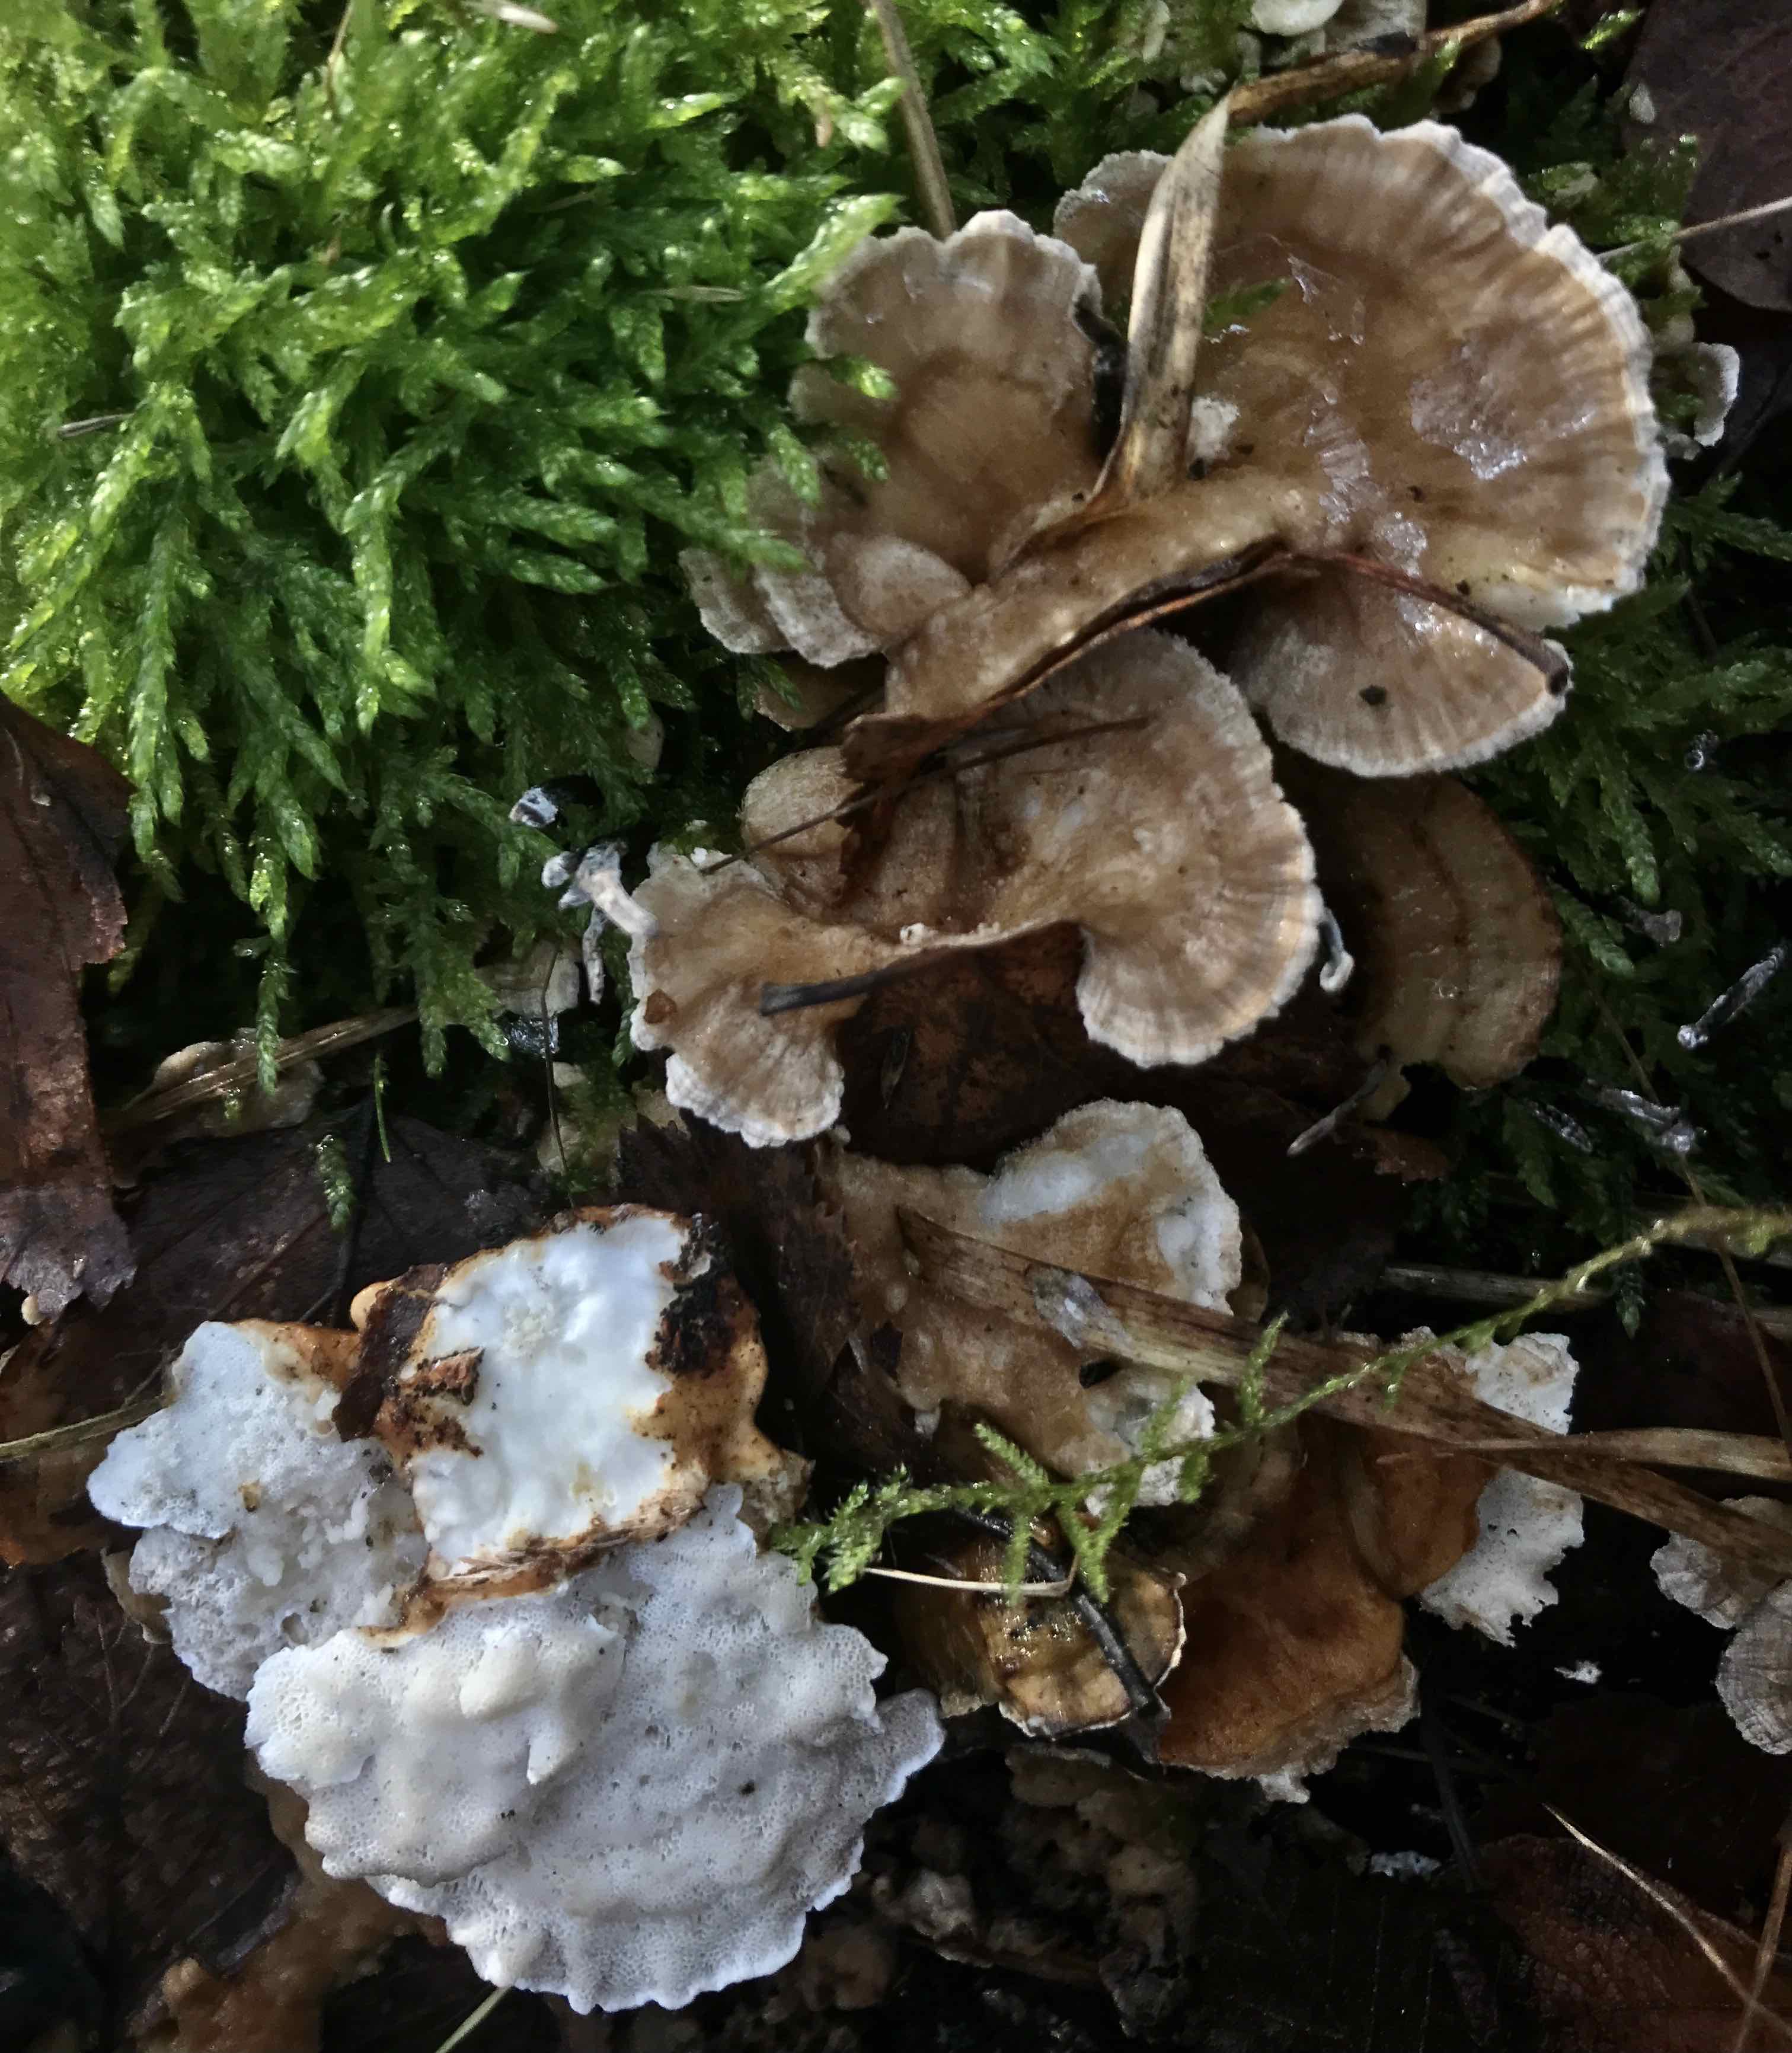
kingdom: Fungi
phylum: Basidiomycota
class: Agaricomycetes
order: Polyporales
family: Polyporaceae
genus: Trametes
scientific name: Trametes ochracea
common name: bæltet læderporesvamp
